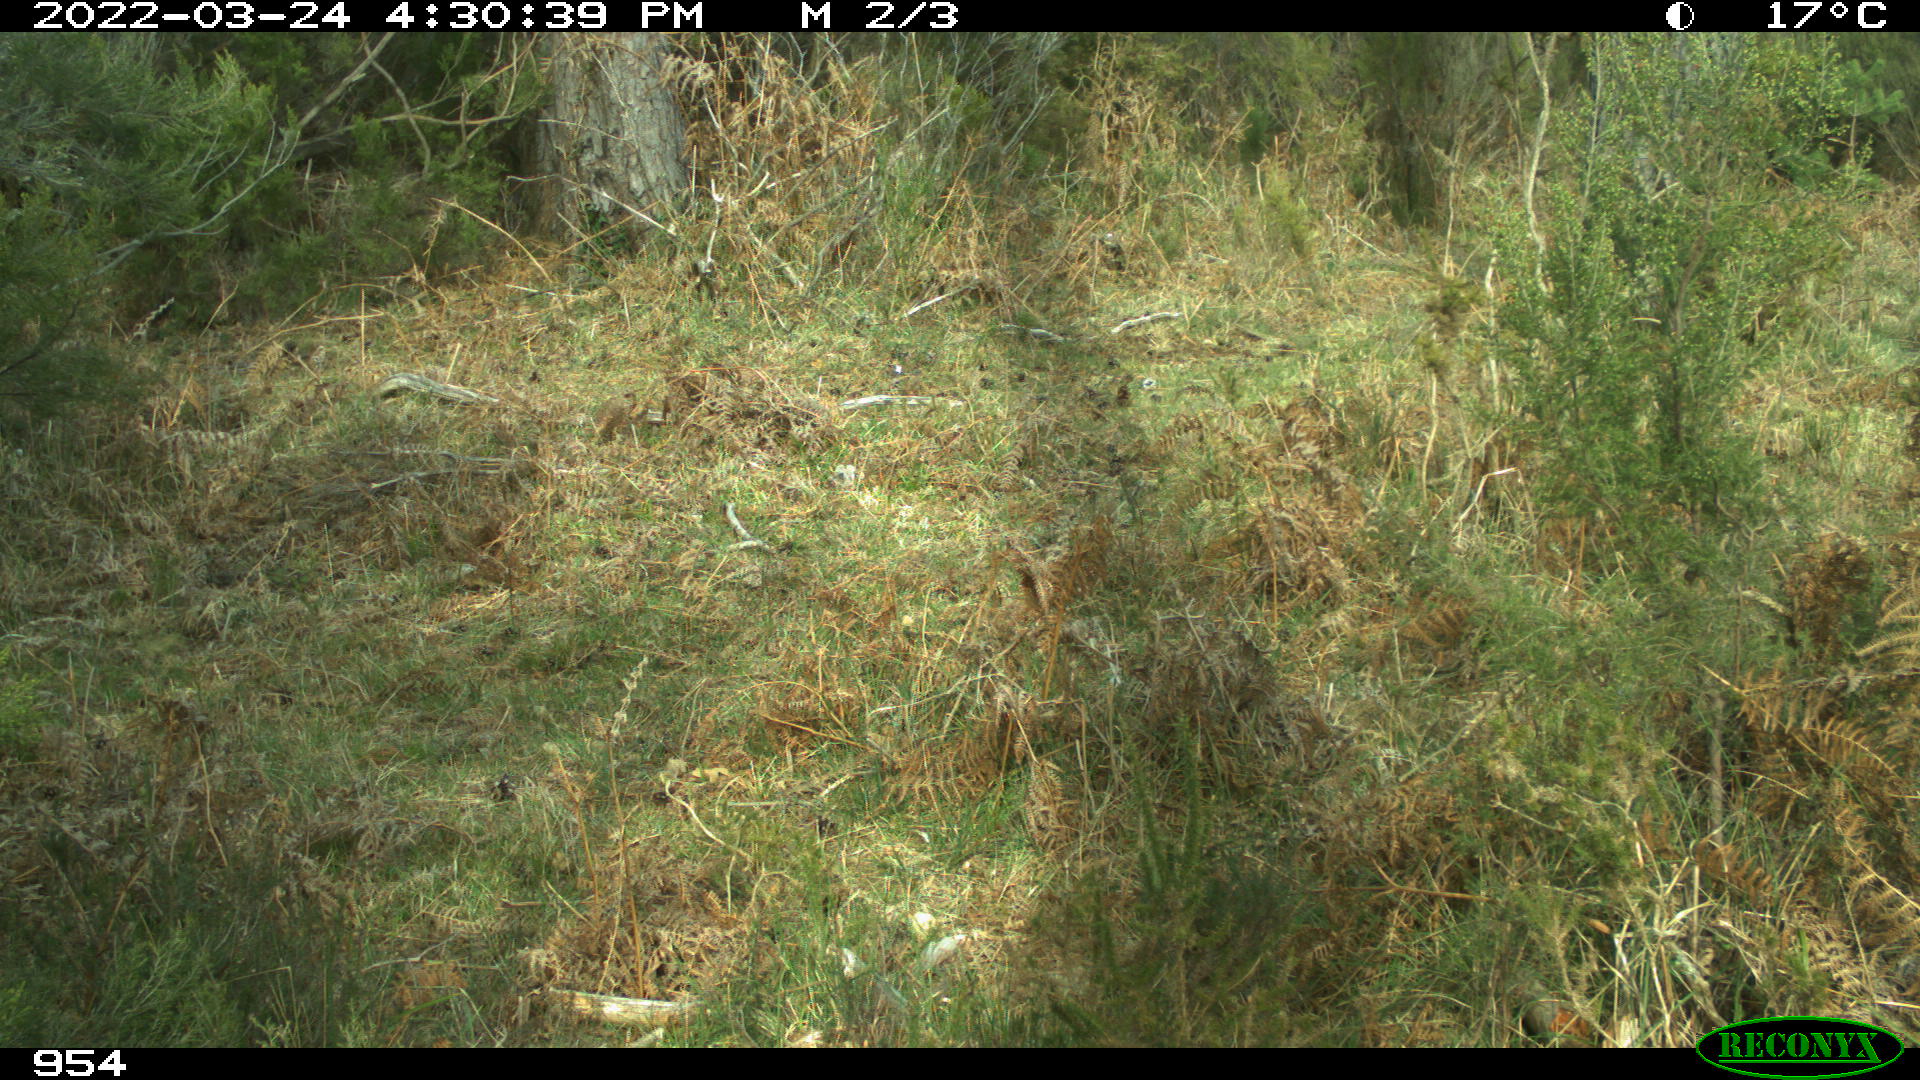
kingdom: Animalia
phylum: Chordata
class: Mammalia
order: Carnivora
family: Canidae
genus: Canis
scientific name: Canis lupus
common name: Gray wolf
